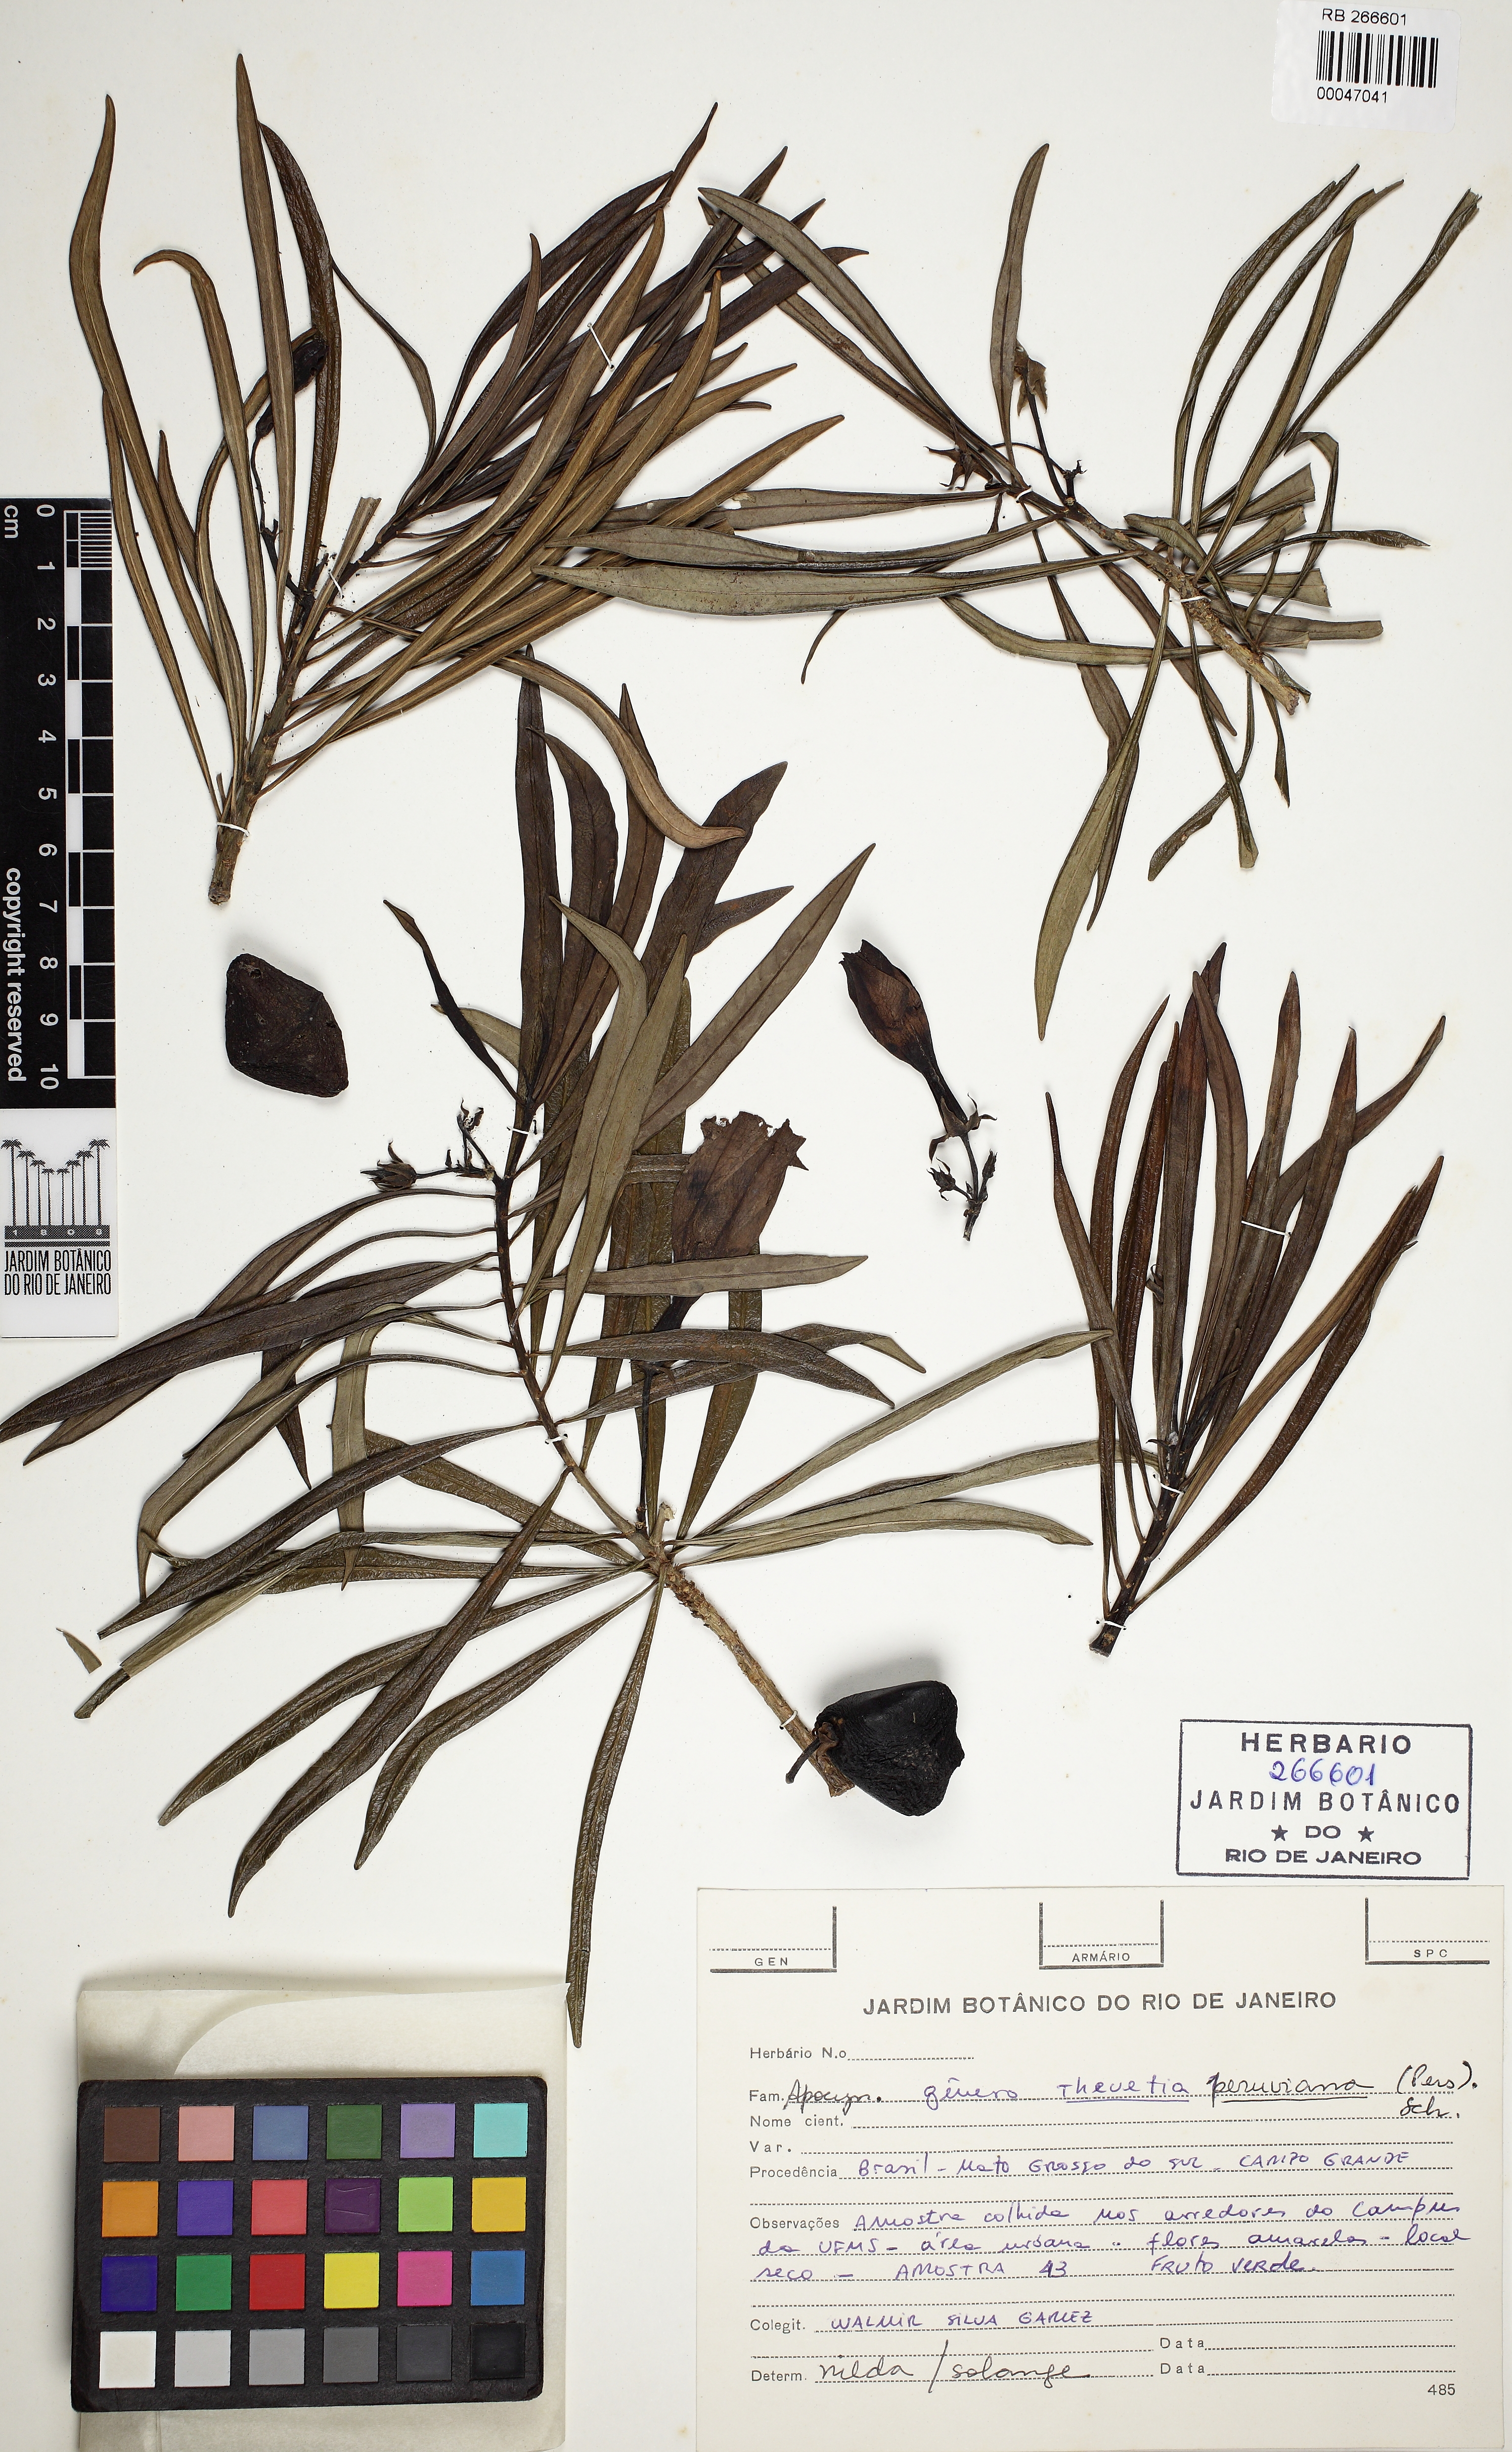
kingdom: Plantae
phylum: Tracheophyta
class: Magnoliopsida
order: Gentianales
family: Apocynaceae
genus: Cascabela
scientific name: Cascabela thevetia
